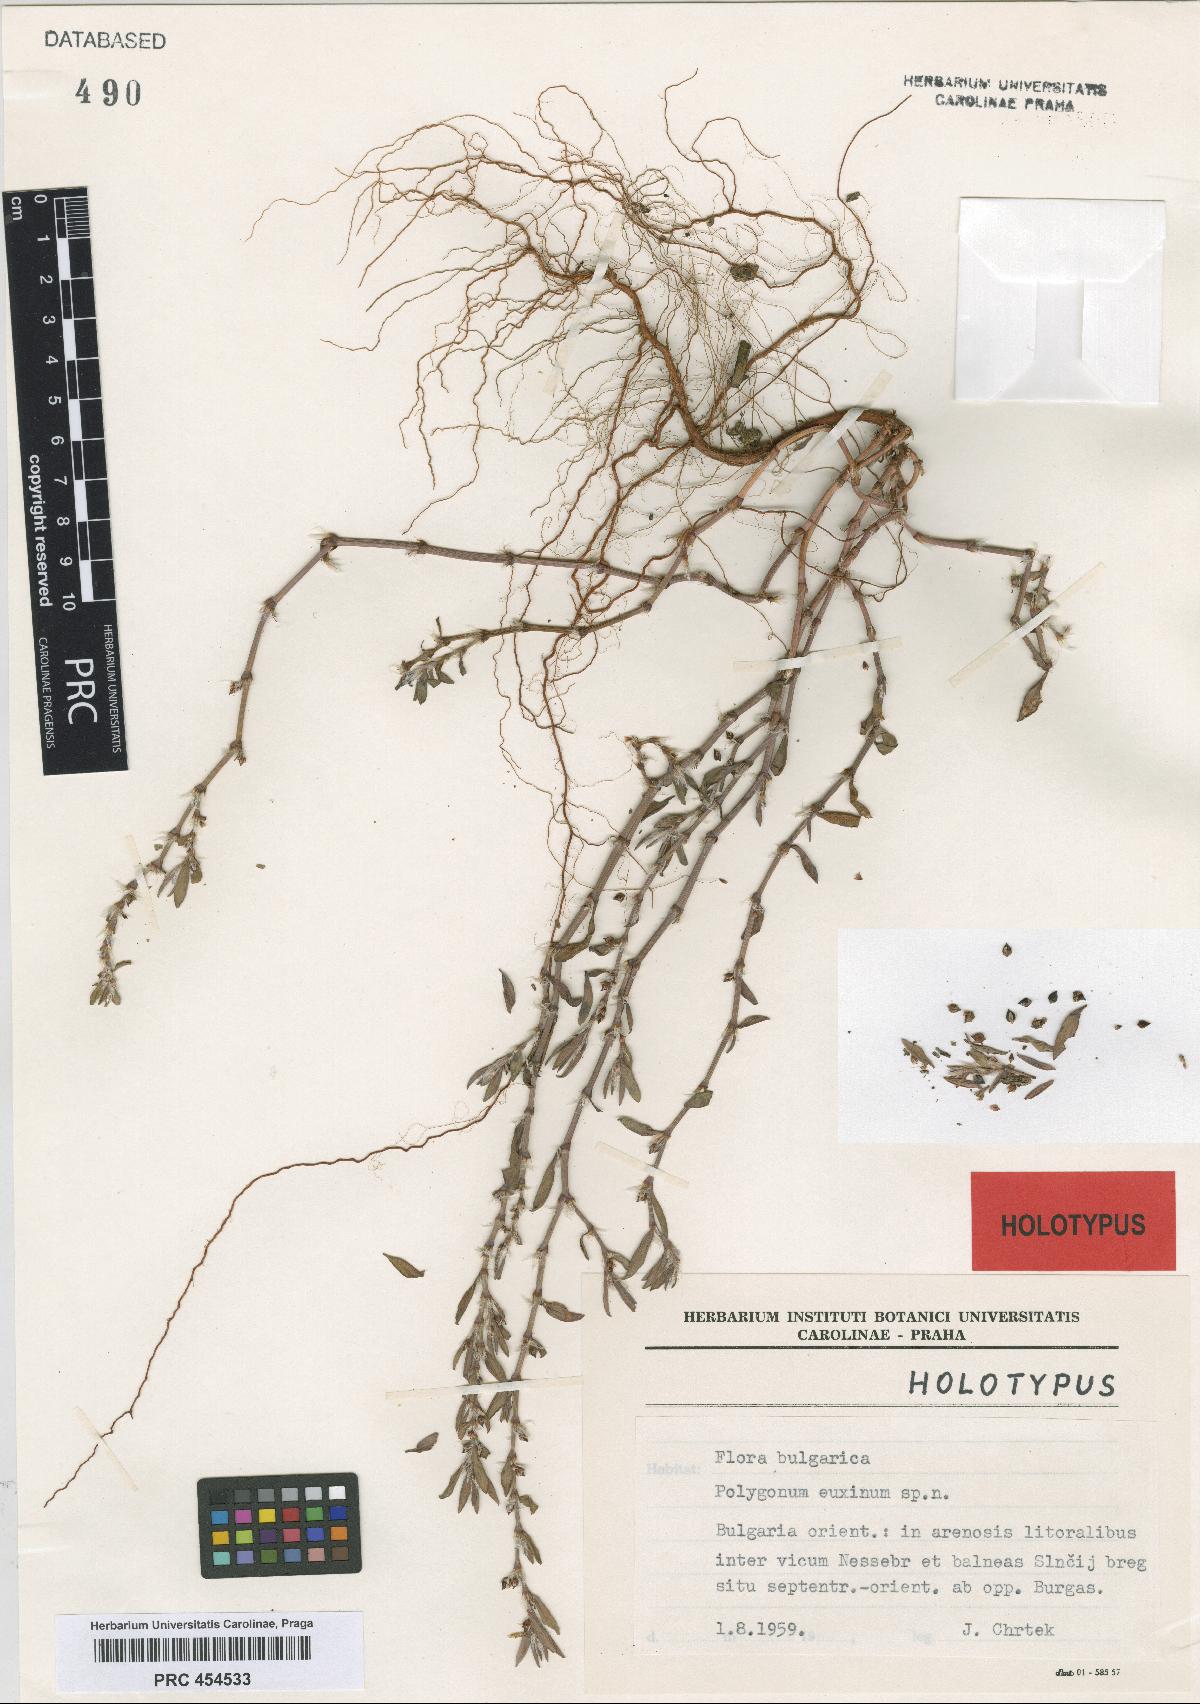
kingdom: Plantae
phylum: Tracheophyta
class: Magnoliopsida
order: Caryophyllales
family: Polygonaceae
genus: Polygonum
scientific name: Polygonum mesembricum
